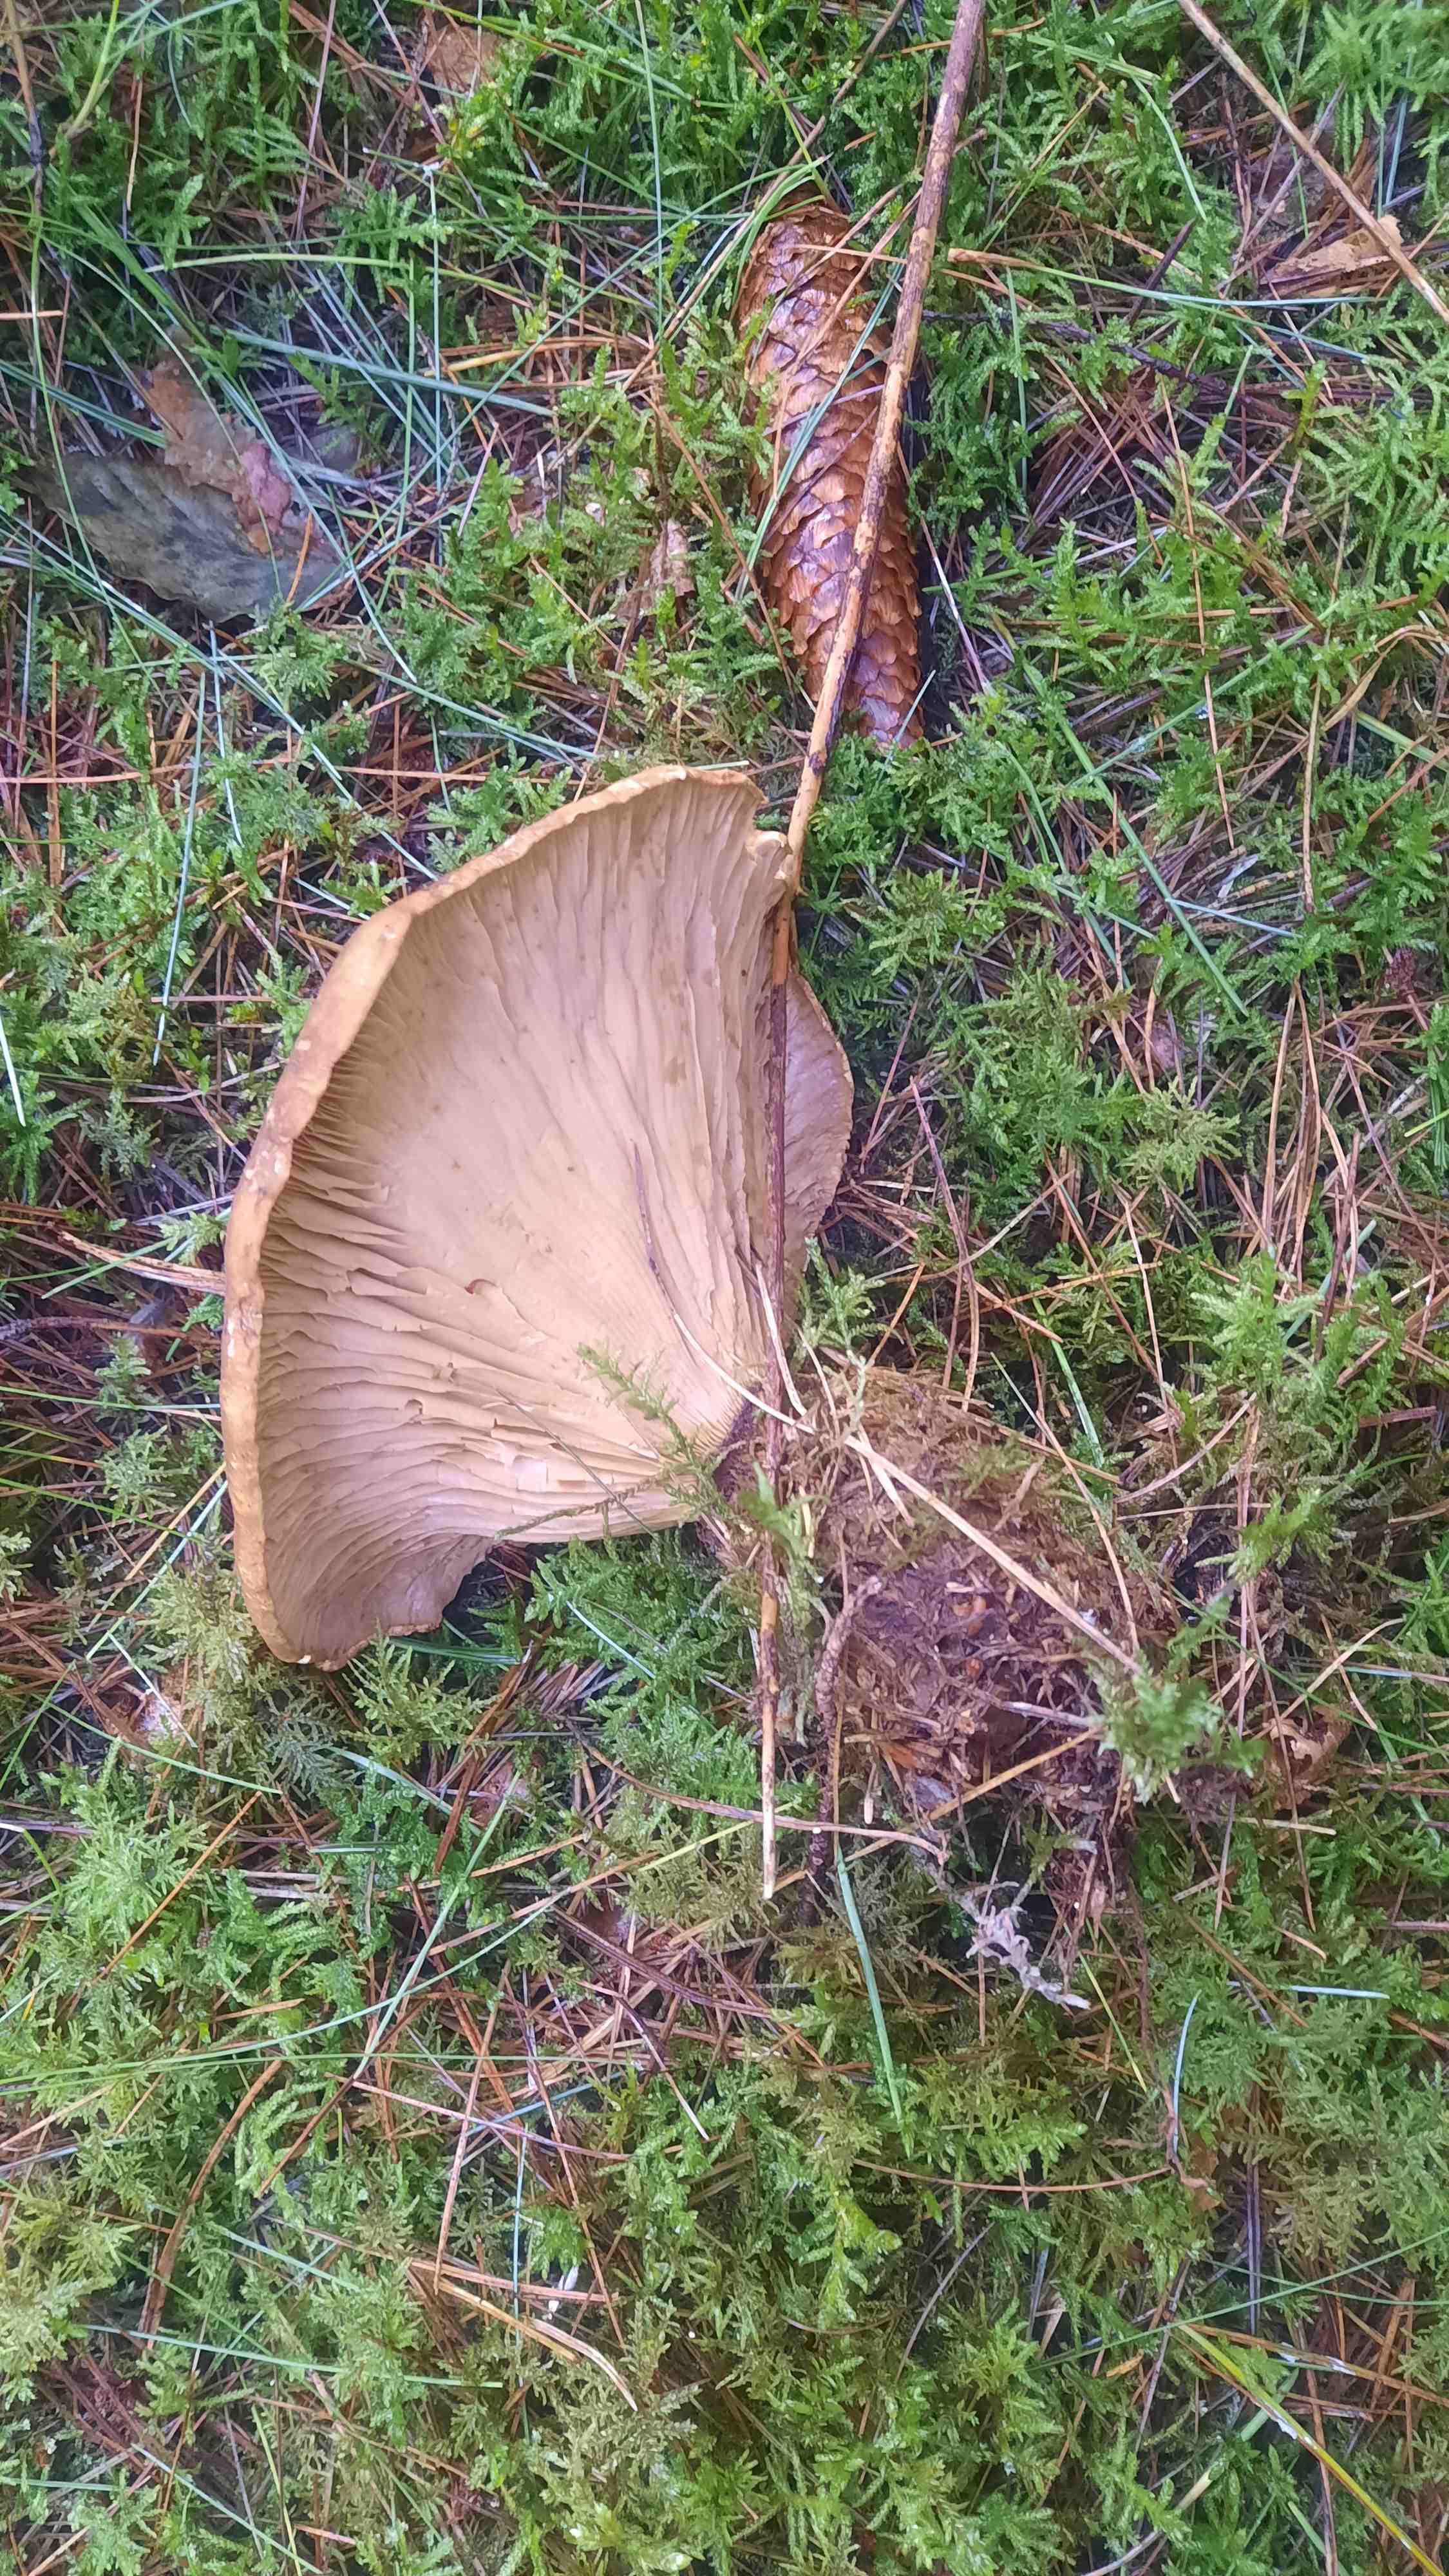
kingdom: Fungi
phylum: Basidiomycota
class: Agaricomycetes
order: Boletales
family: Tapinellaceae
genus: Tapinella
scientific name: Tapinella atrotomentosa
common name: sortfiltet viftesvamp
